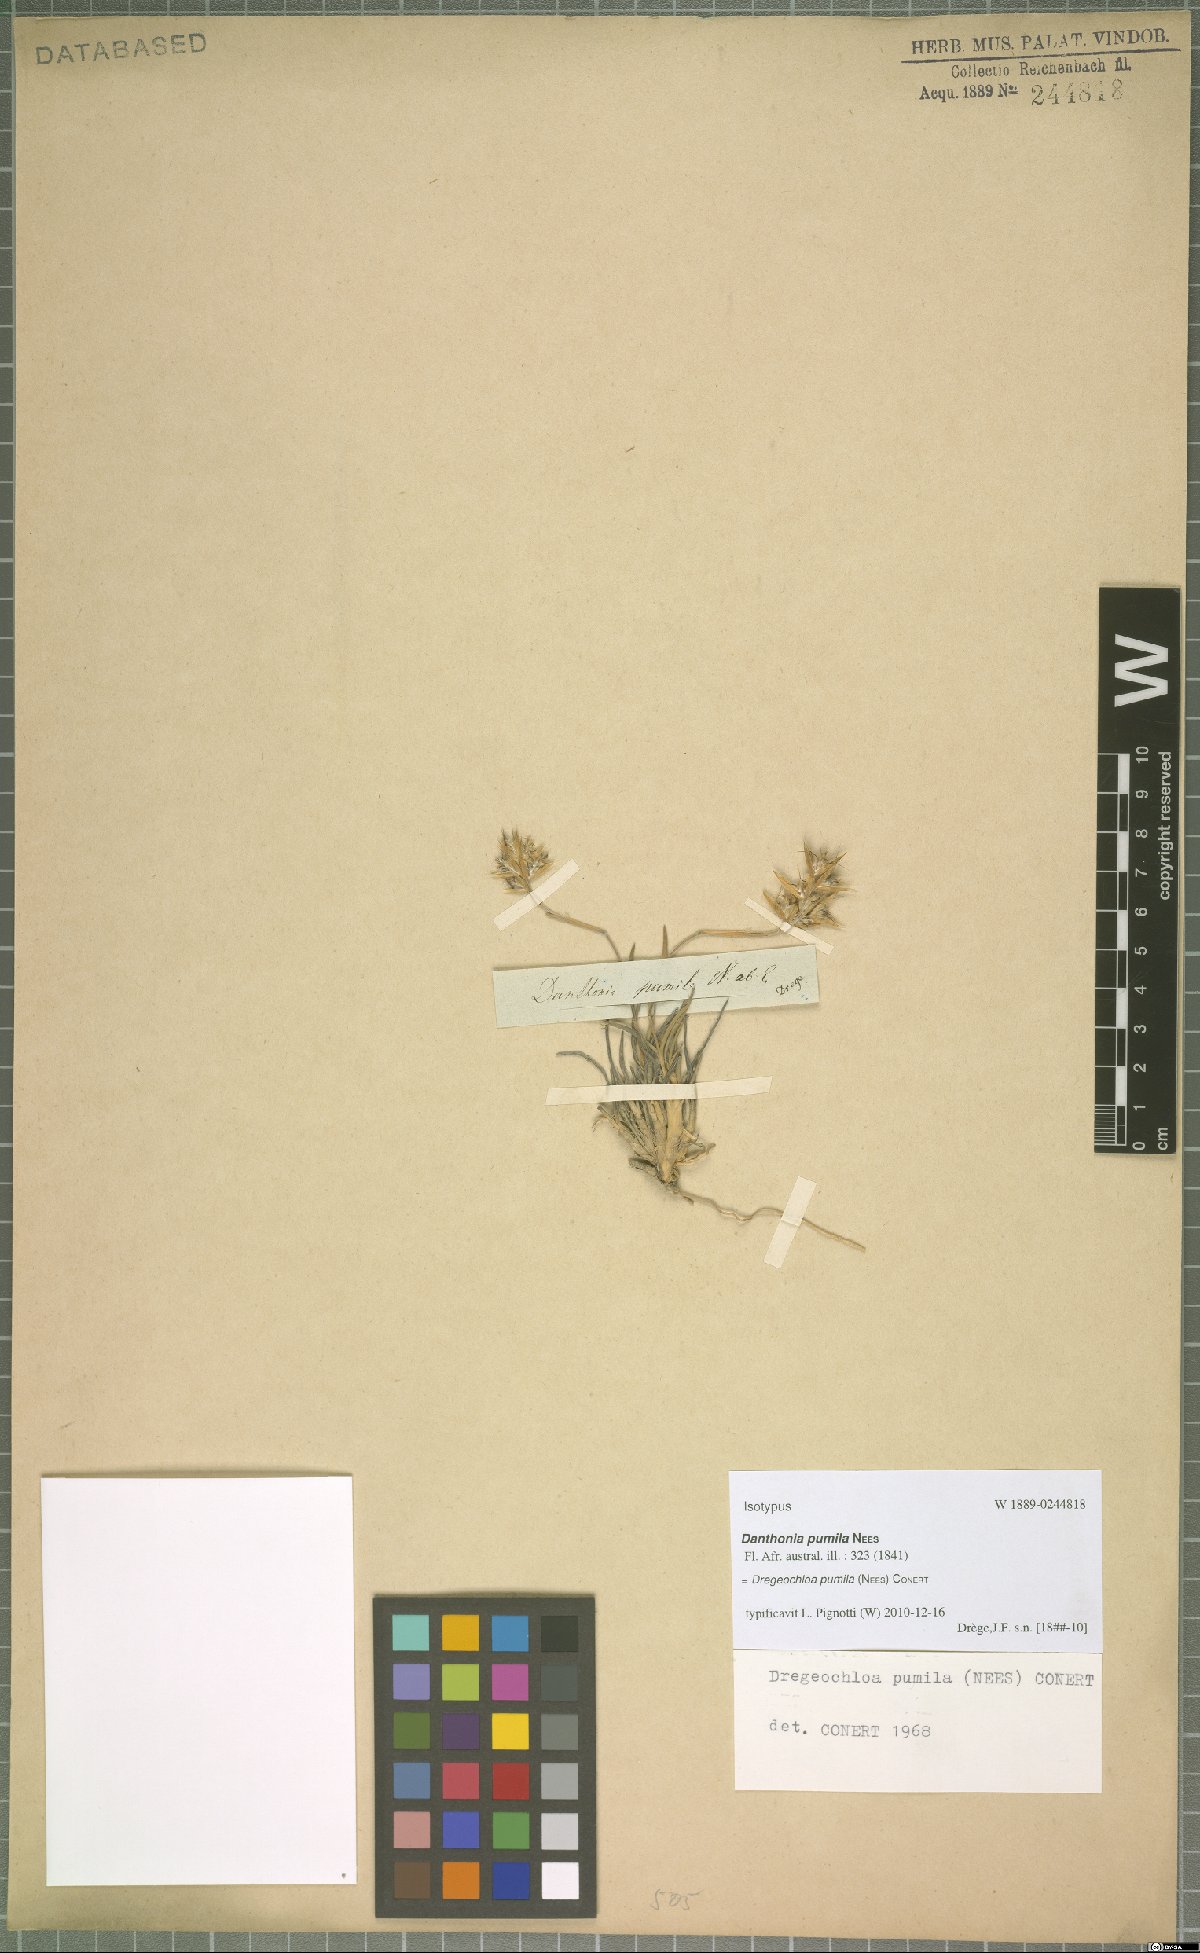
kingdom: Plantae
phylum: Tracheophyta
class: Liliopsida
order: Poales
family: Poaceae
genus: Dregeochloa
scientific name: Dregeochloa pumila
